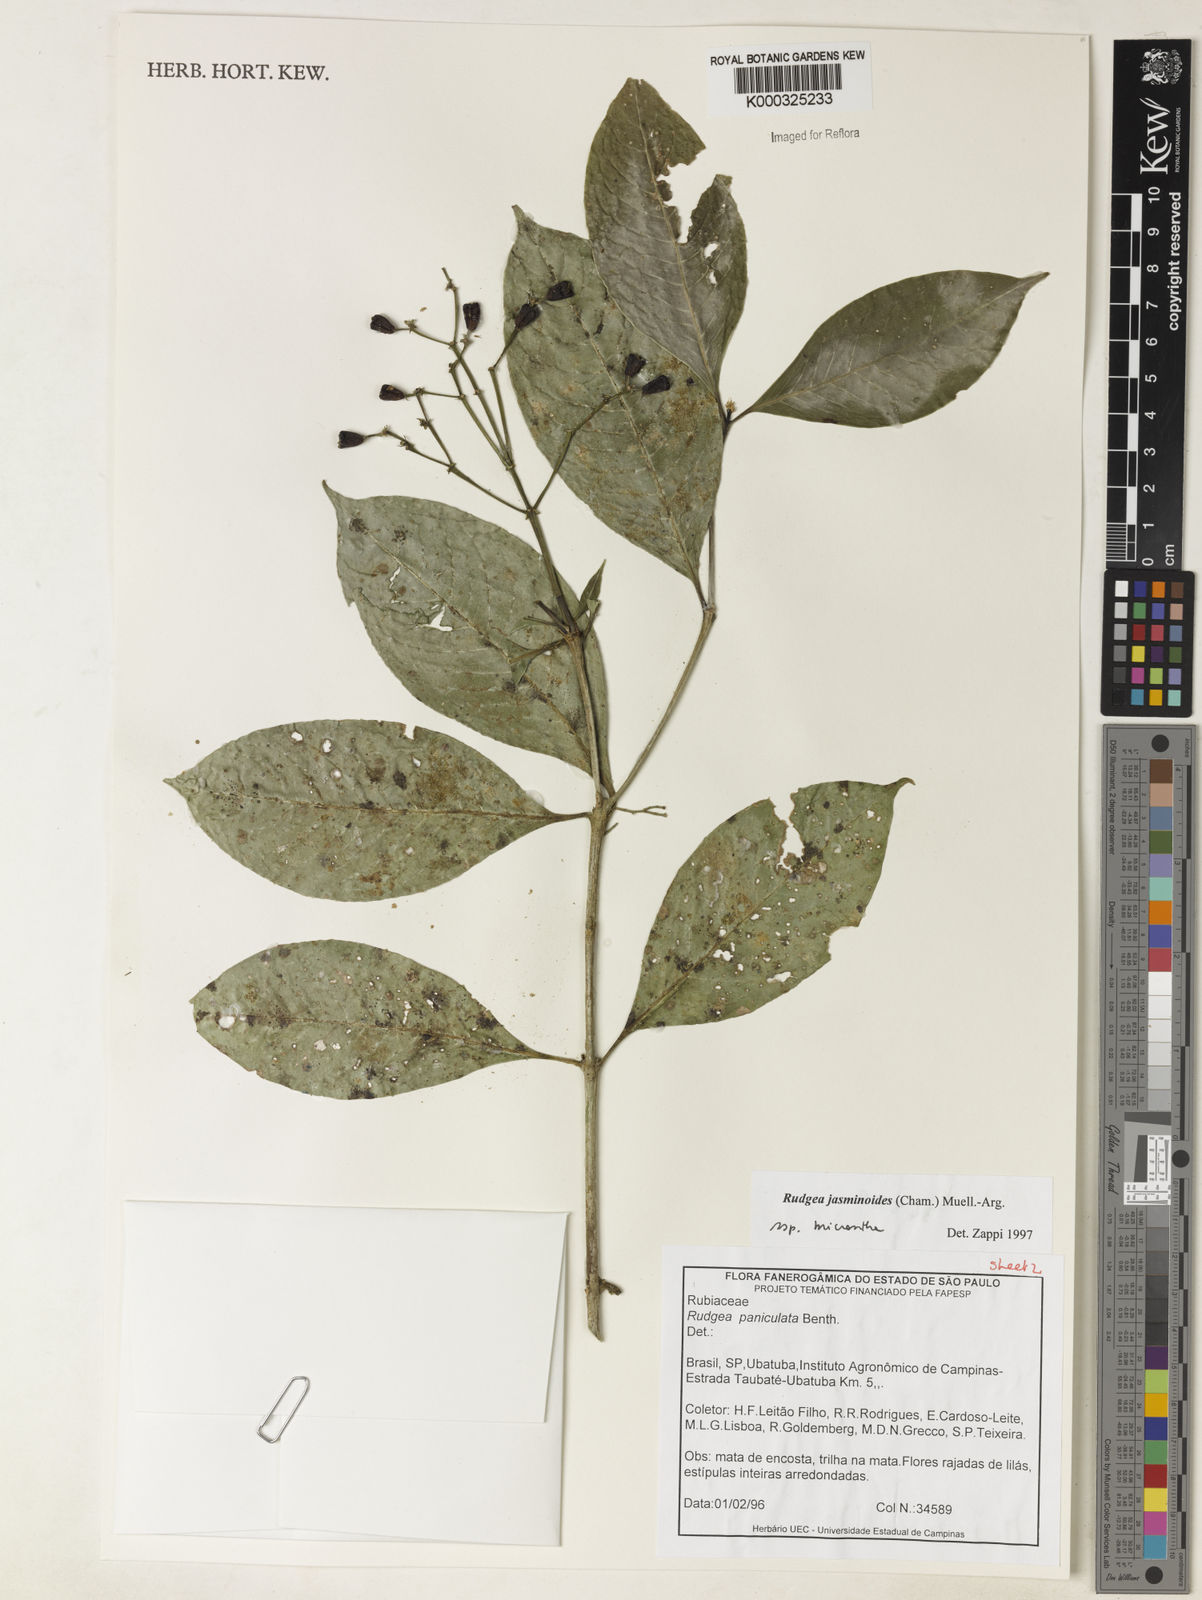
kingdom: Plantae
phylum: Tracheophyta
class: Magnoliopsida
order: Gentianales
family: Rubiaceae
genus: Rudgea
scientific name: Rudgea jasminoides
